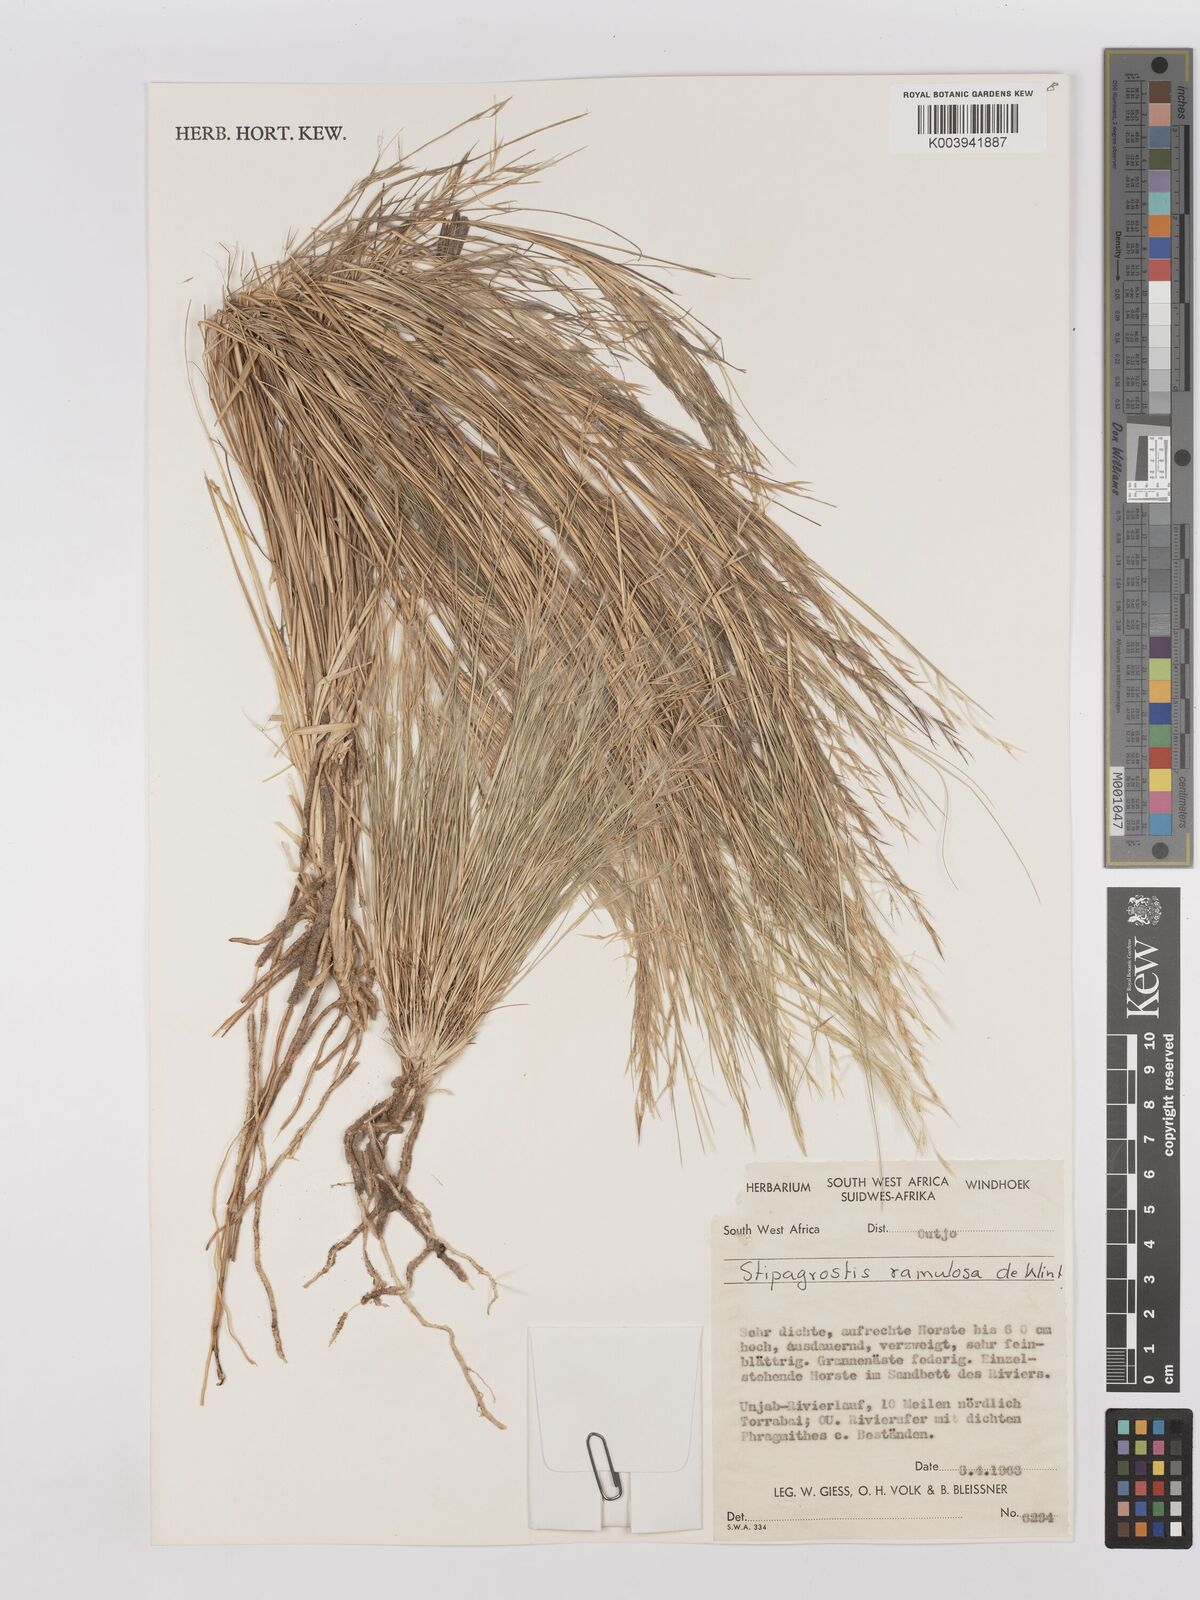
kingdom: Plantae
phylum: Tracheophyta
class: Liliopsida
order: Poales
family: Poaceae
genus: Stipagrostis
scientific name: Stipagrostis ramulosa
